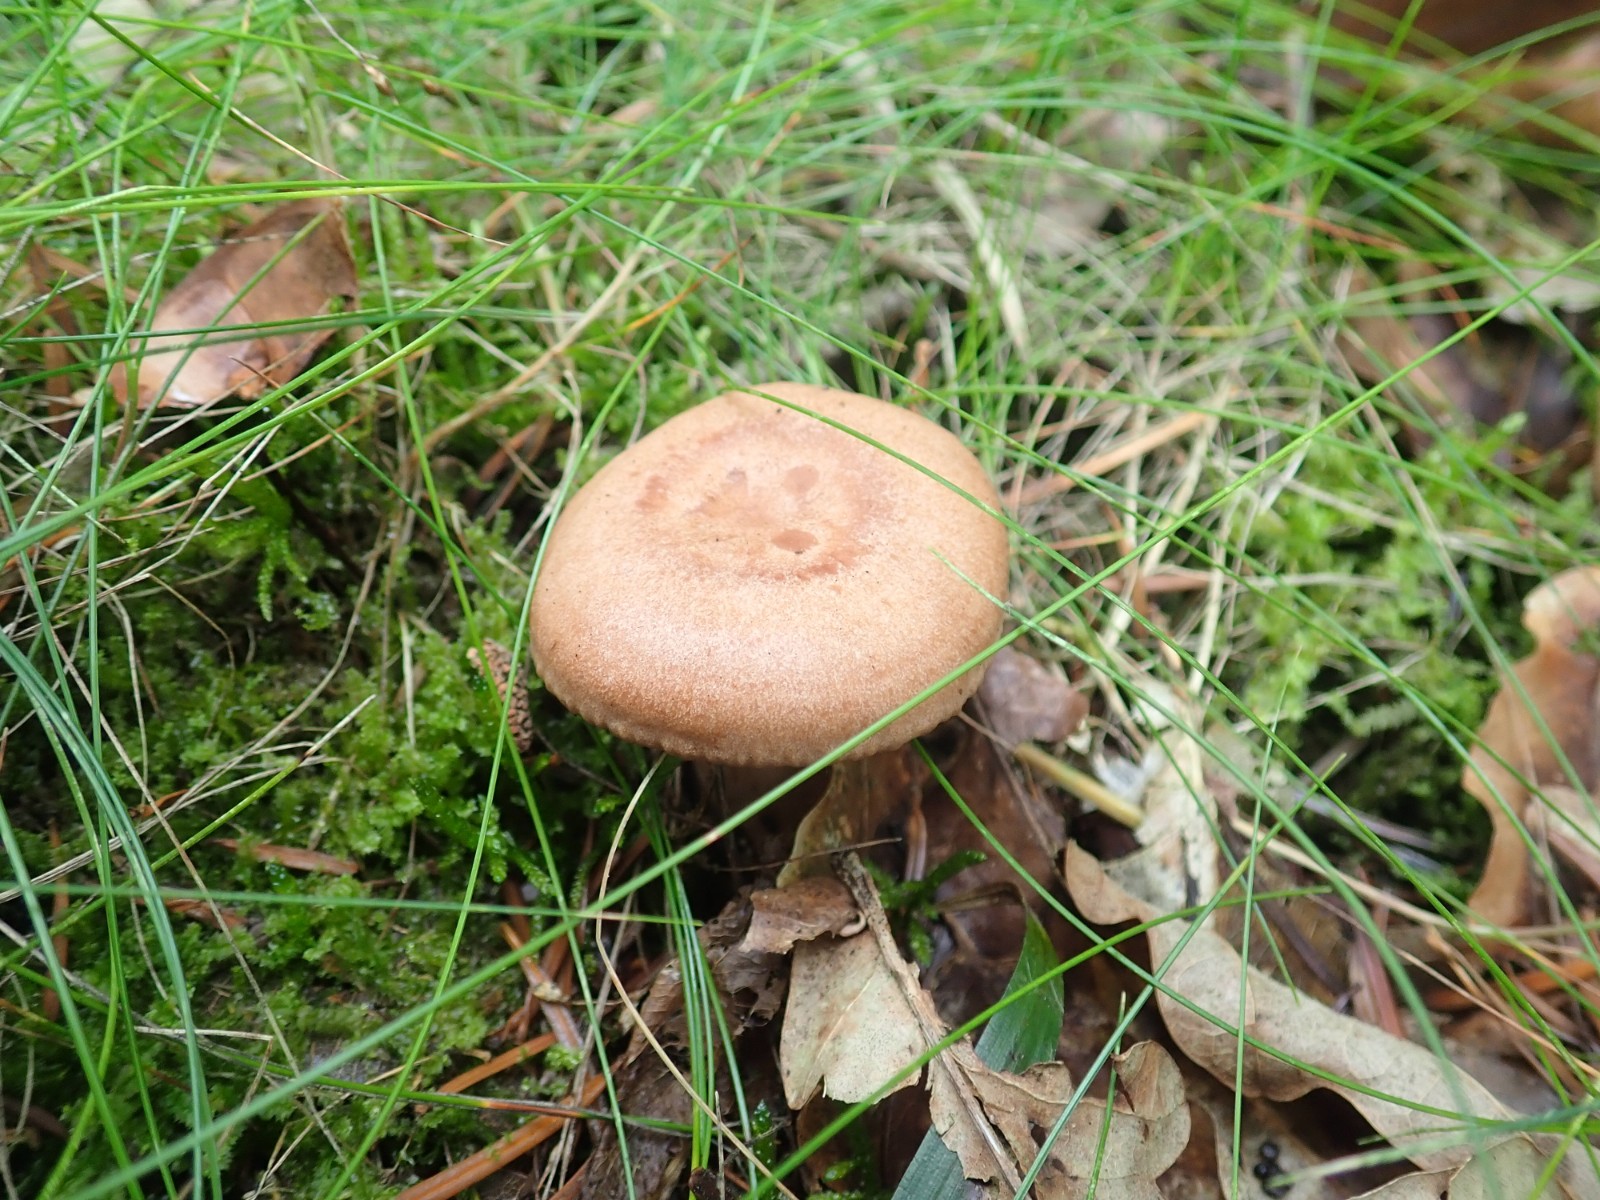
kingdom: Fungi
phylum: Basidiomycota
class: Agaricomycetes
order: Russulales
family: Russulaceae
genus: Lactarius
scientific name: Lactarius quietus
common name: ege-mælkehat
